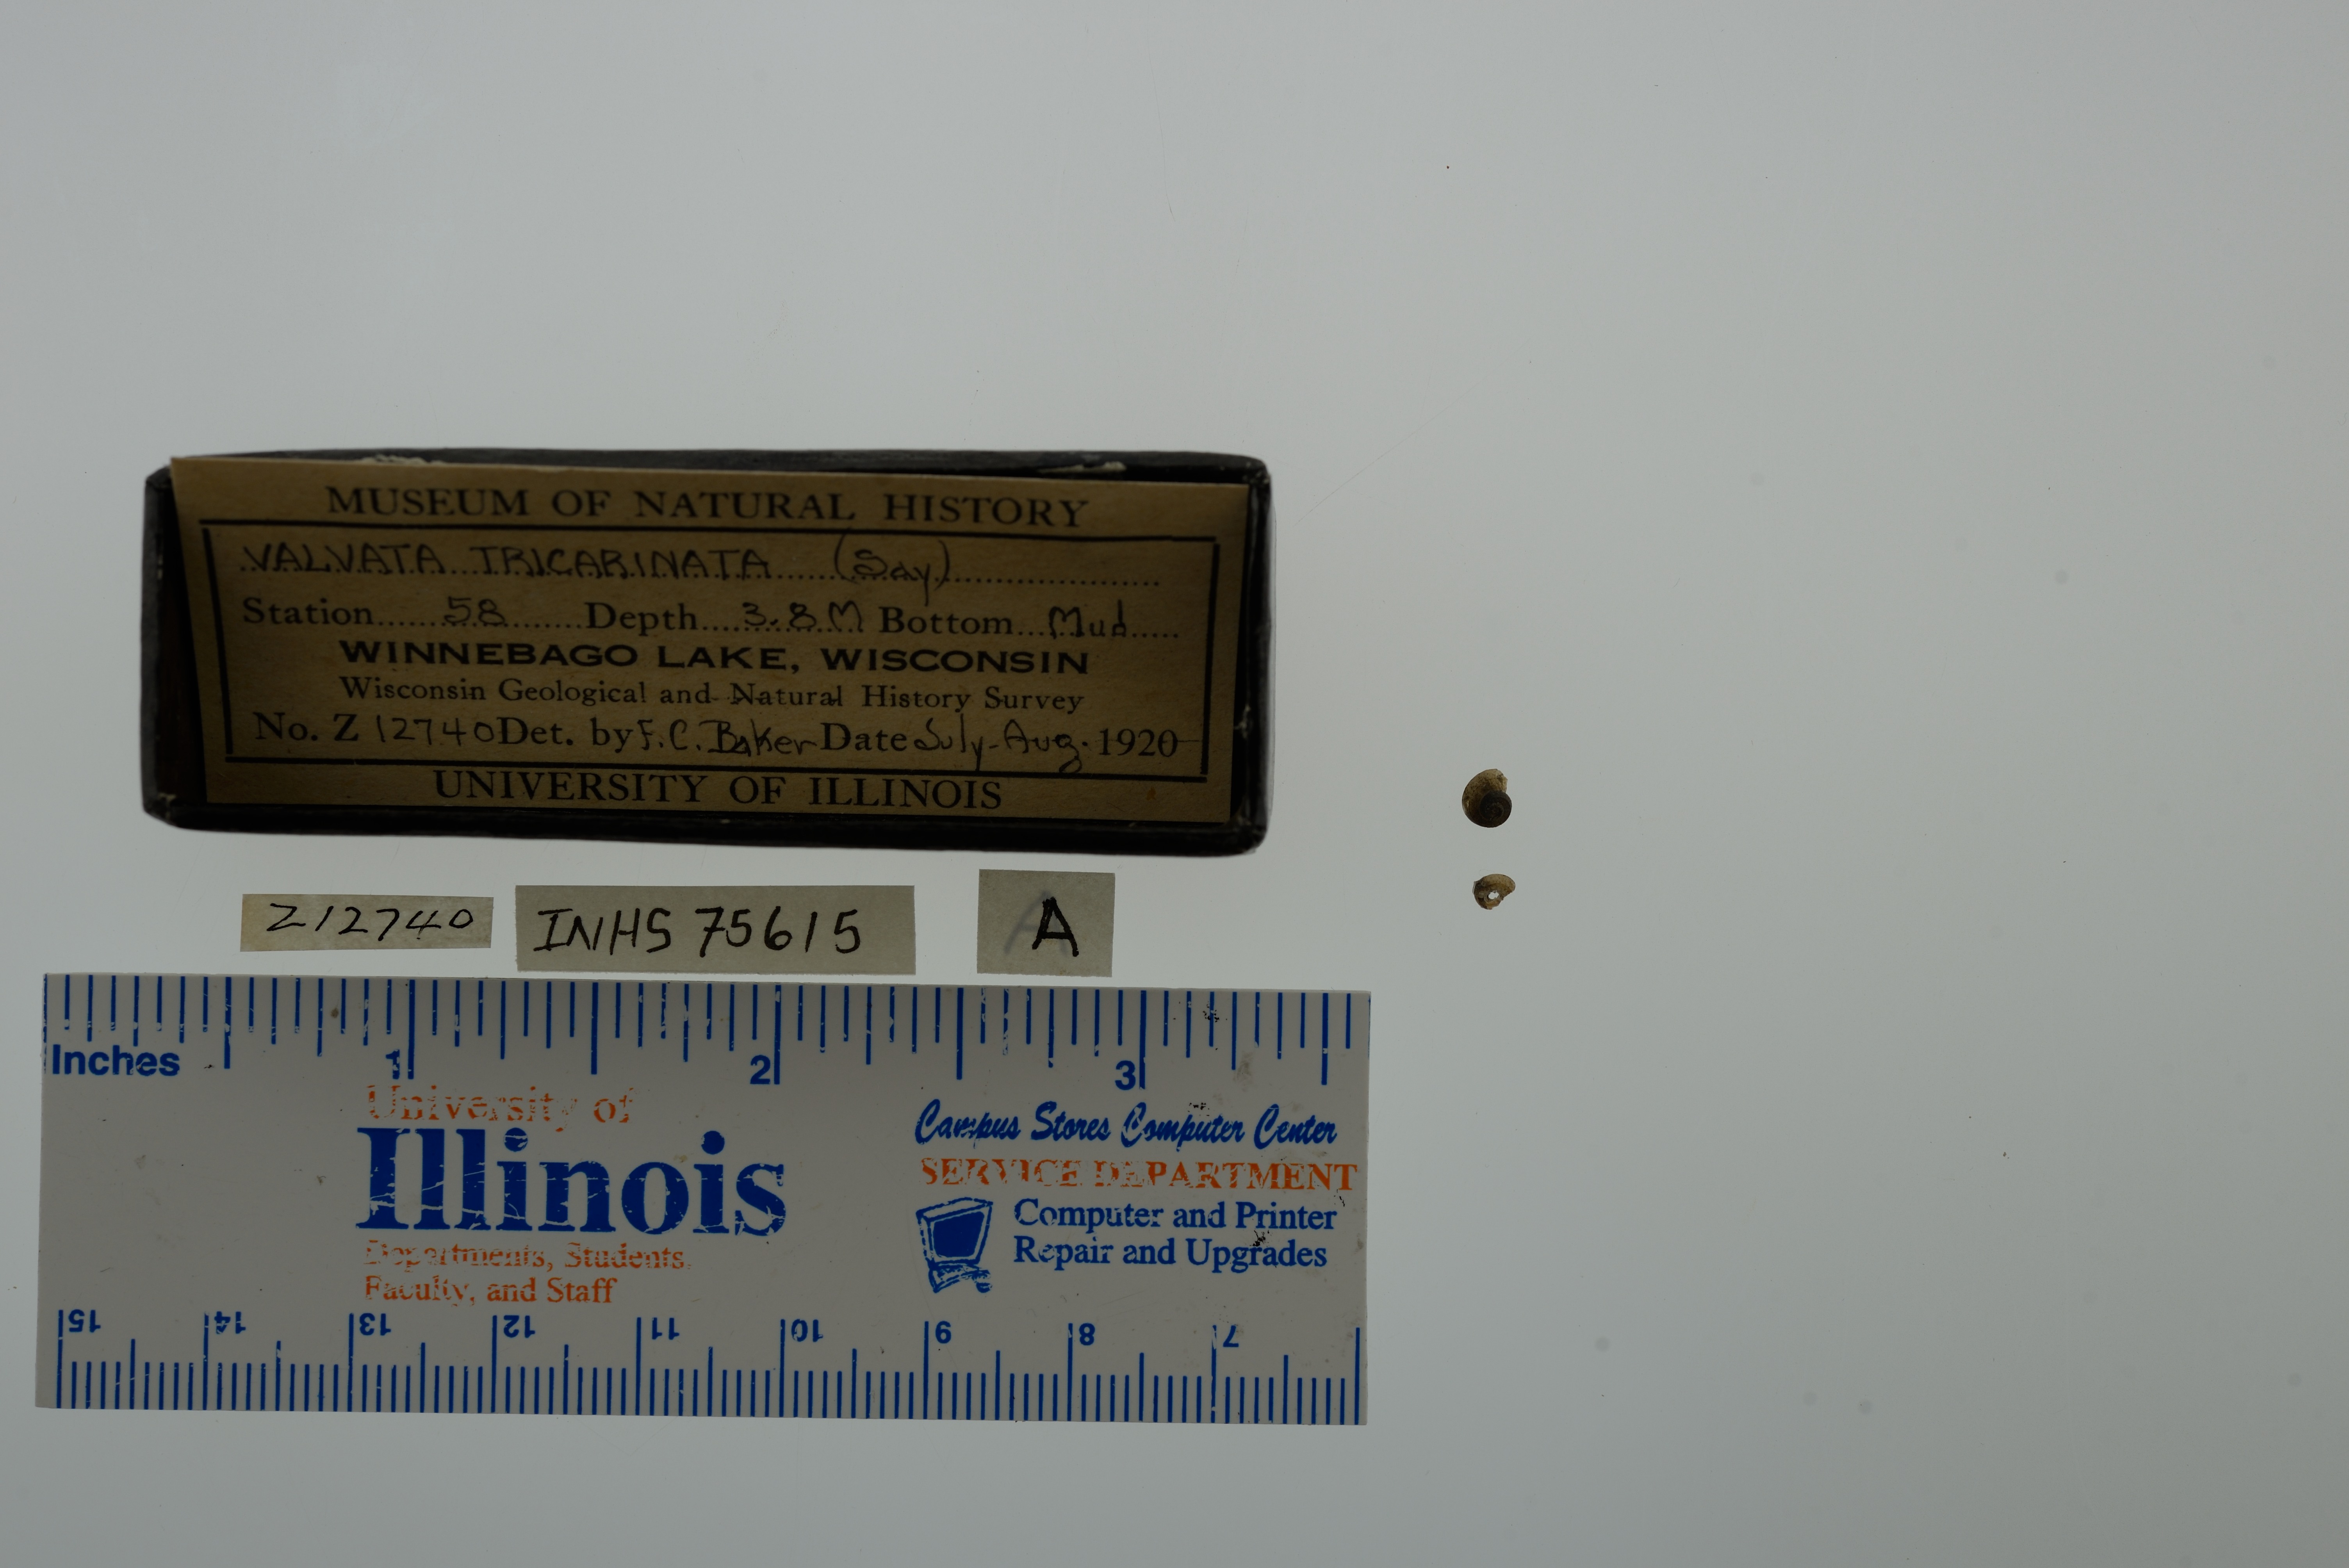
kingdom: Animalia
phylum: Mollusca
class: Gastropoda
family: Valvatidae
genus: Valvata
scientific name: Valvata tricarinata
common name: Three-ridge valvata
